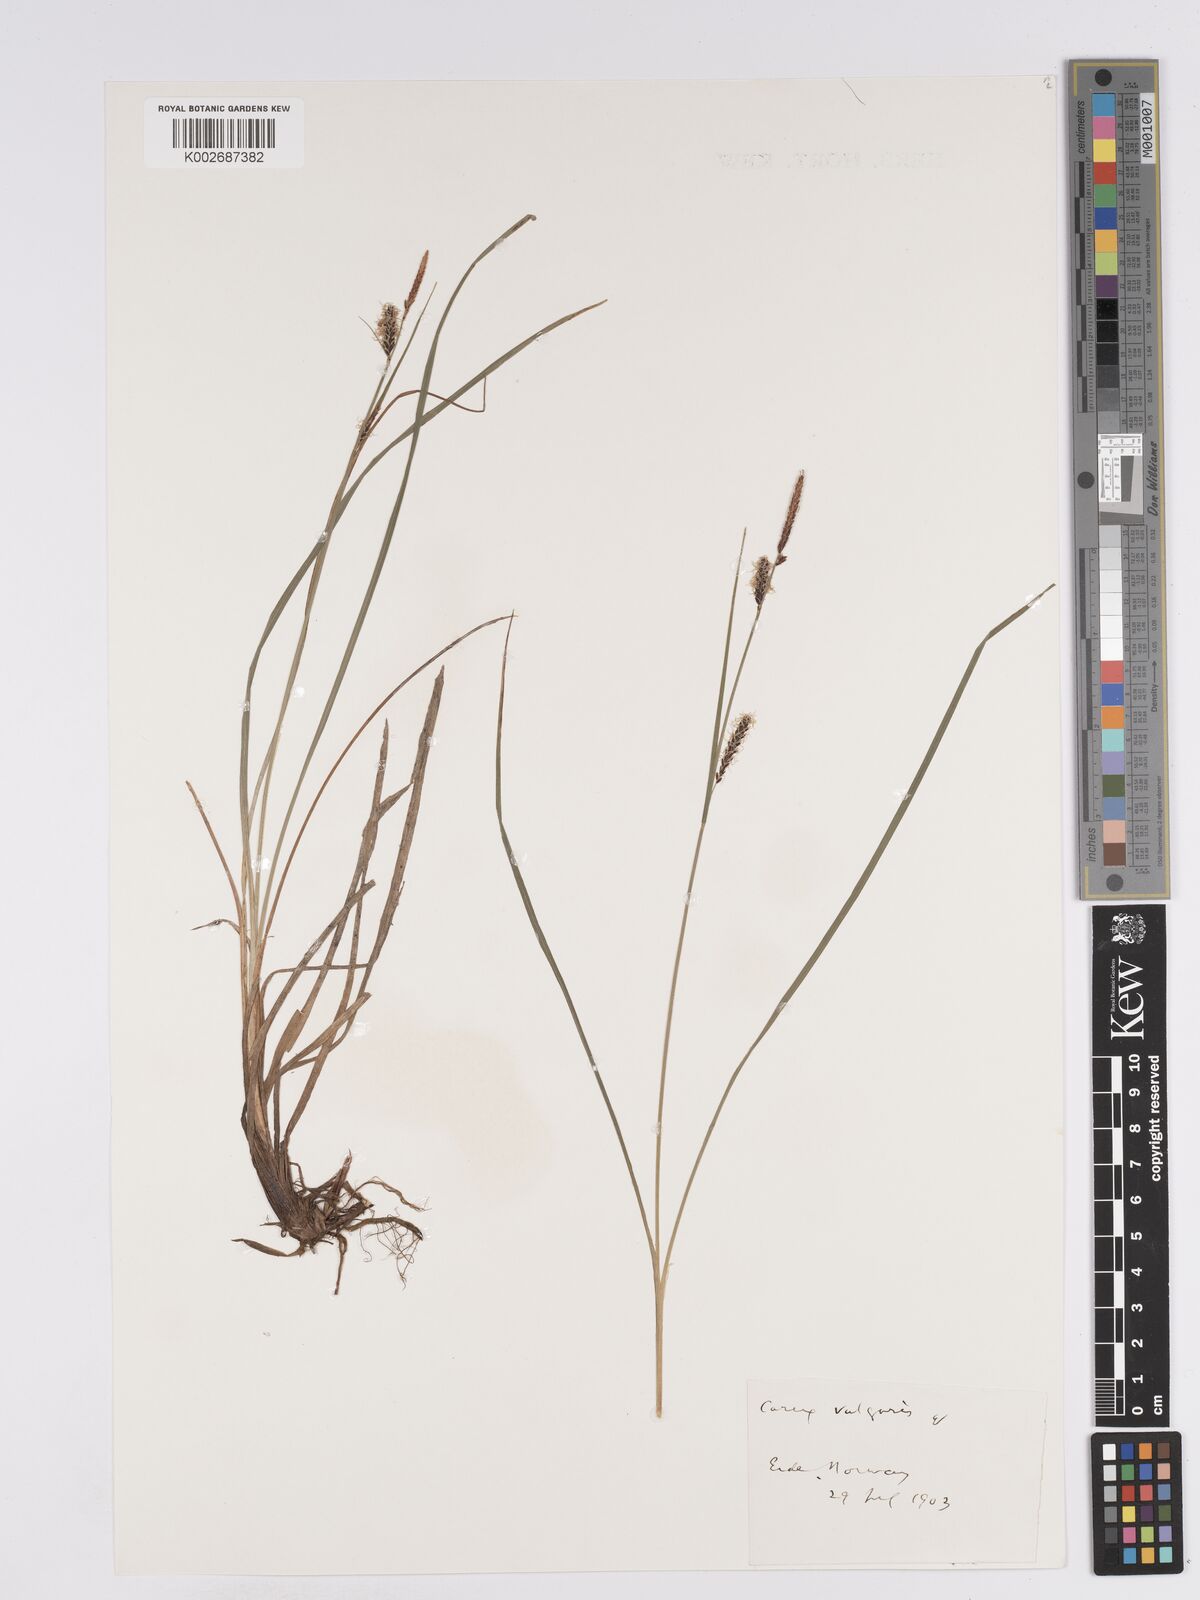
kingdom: Plantae
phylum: Tracheophyta
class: Liliopsida
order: Poales
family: Cyperaceae
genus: Carex
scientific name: Carex nigra
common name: Common sedge
